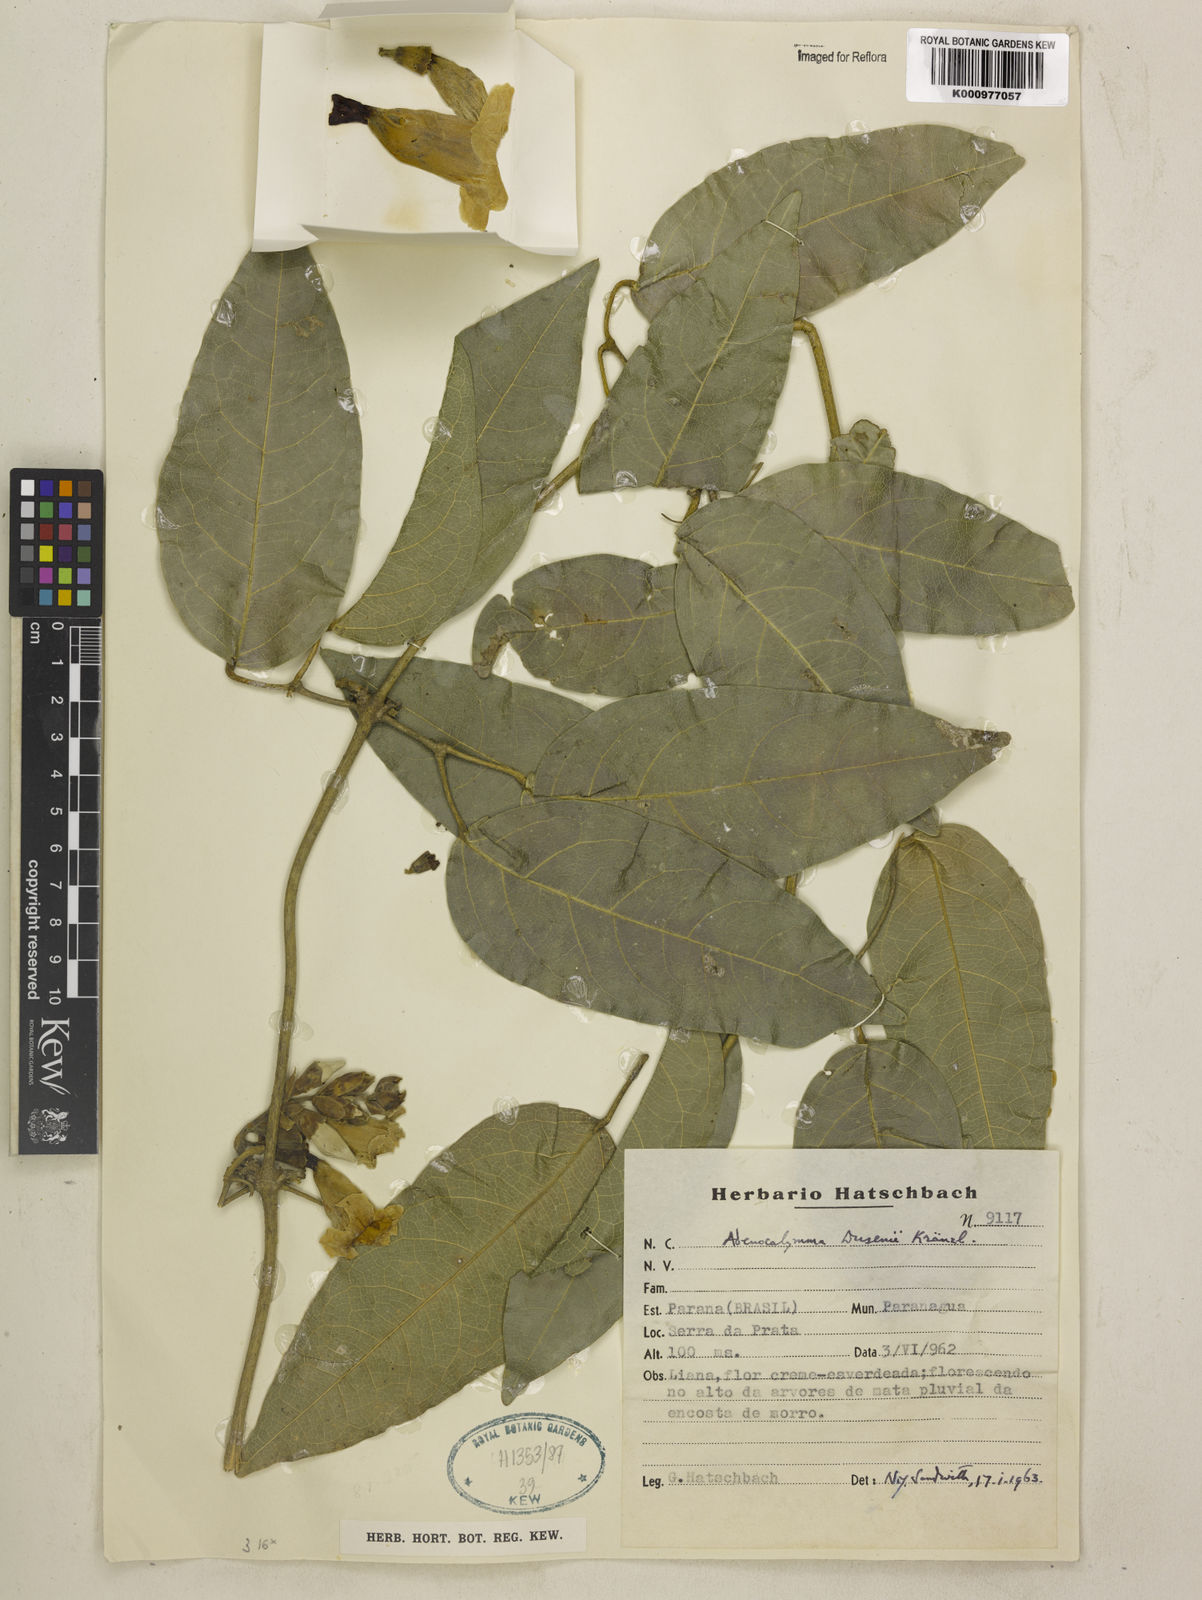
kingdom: Plantae
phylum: Tracheophyta
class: Magnoliopsida
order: Lamiales
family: Bignoniaceae
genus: Adenocalymma
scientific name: Adenocalymma dusenii
